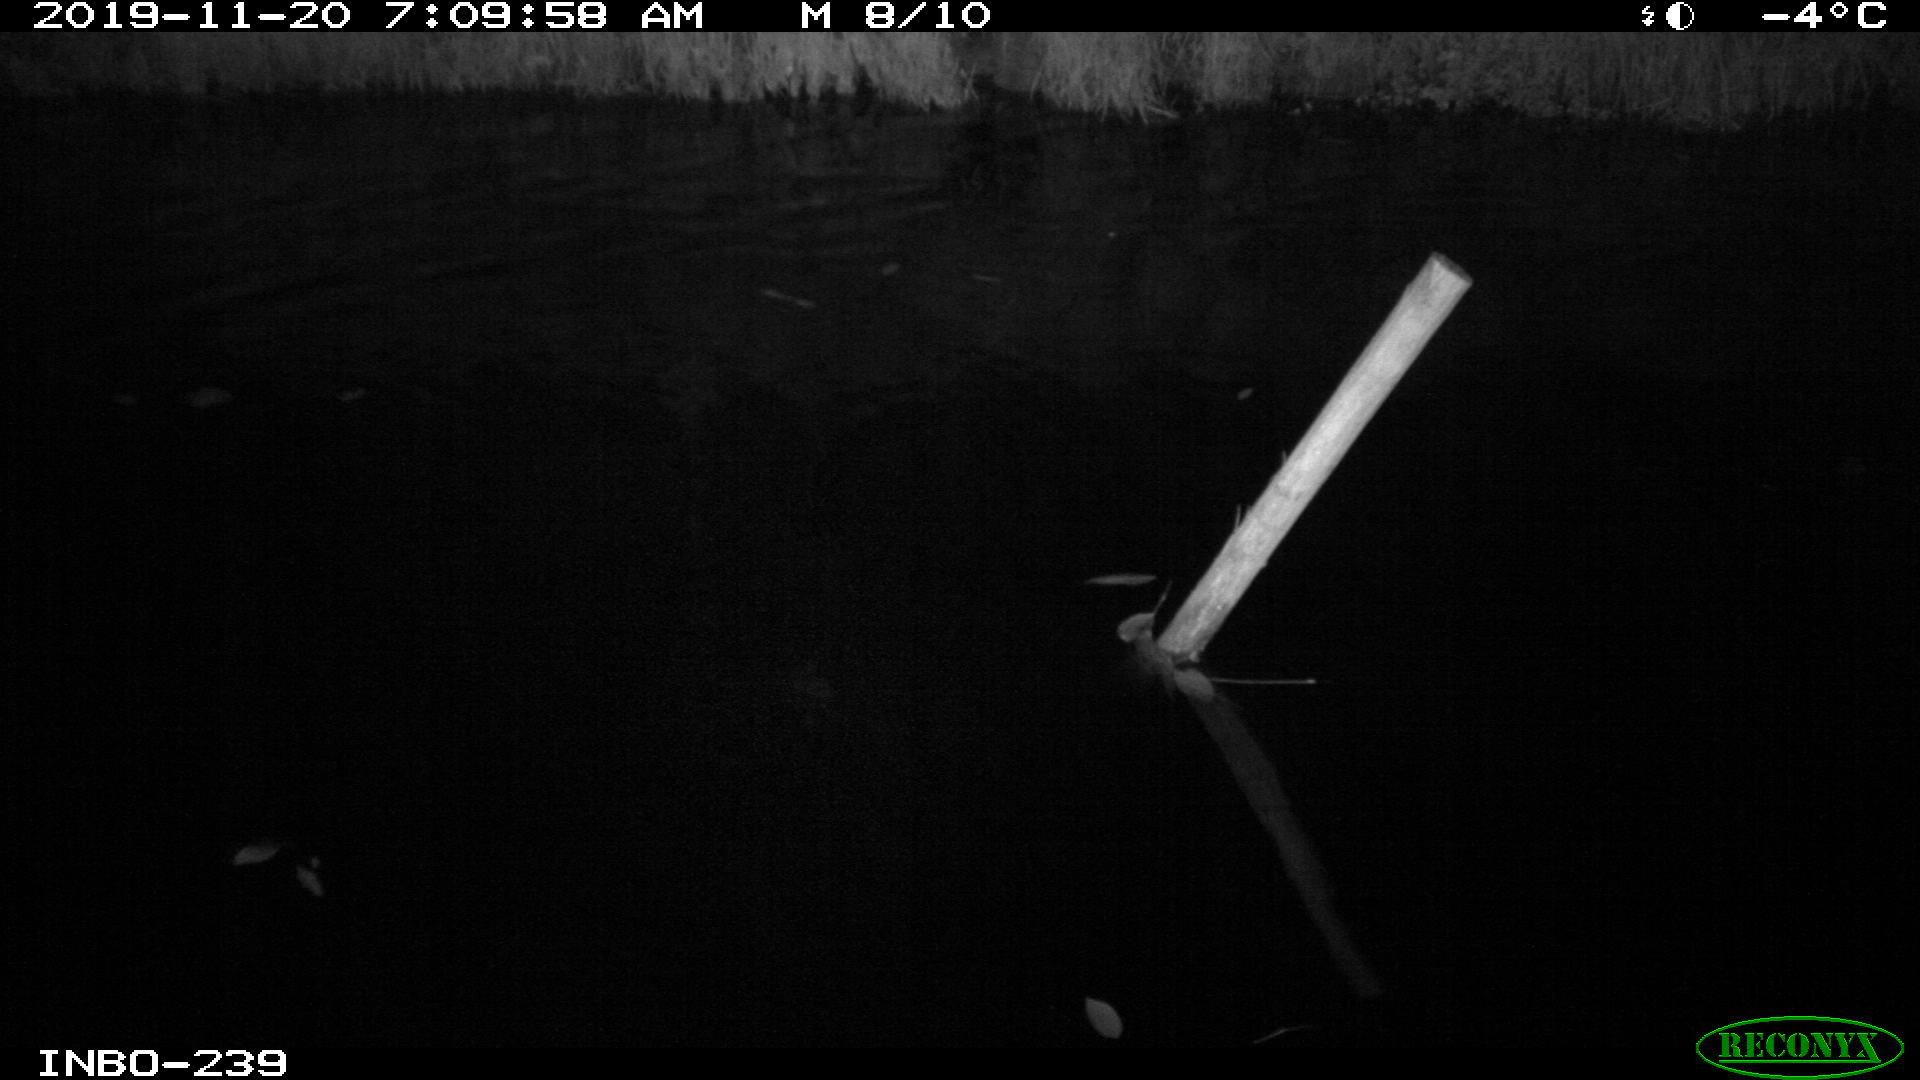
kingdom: Animalia
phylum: Chordata
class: Aves
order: Anseriformes
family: Anatidae
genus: Anas
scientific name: Anas platyrhynchos
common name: Mallard
